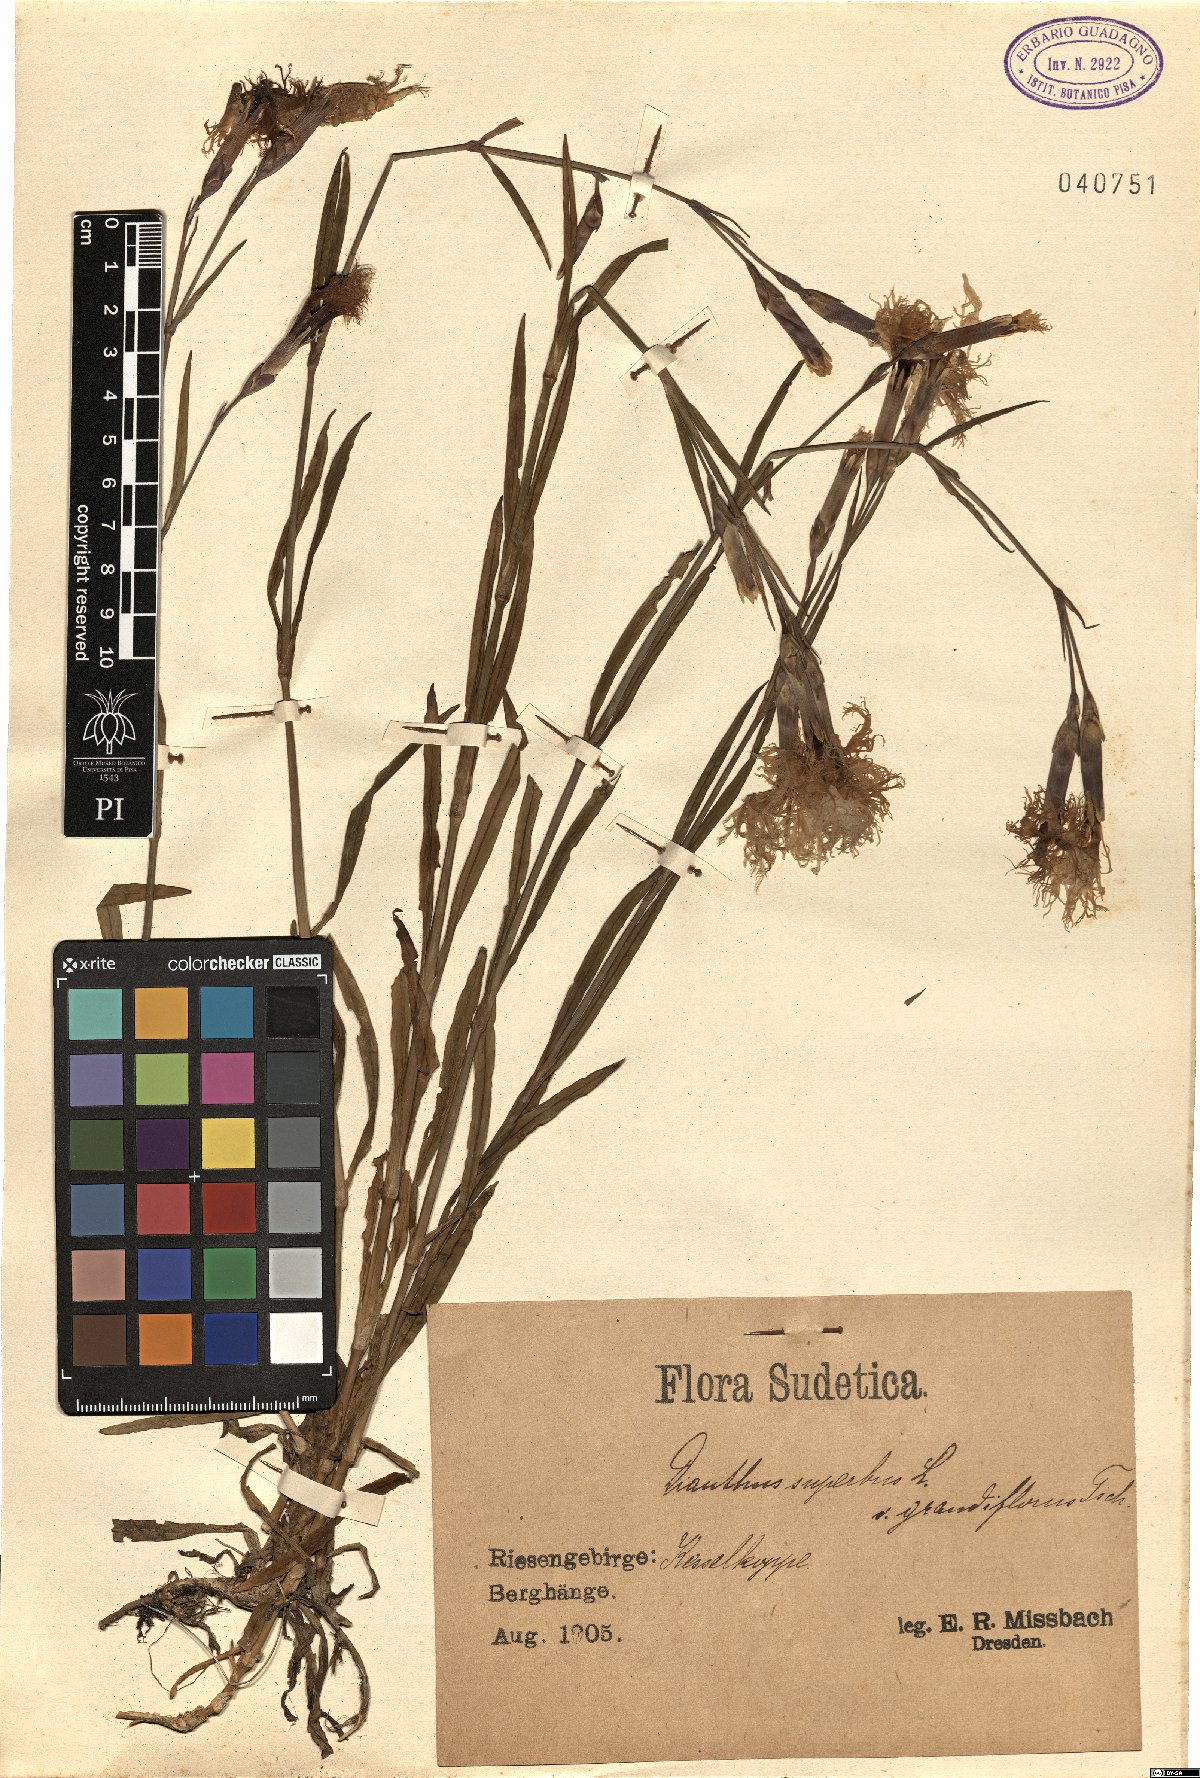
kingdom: Plantae
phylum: Tracheophyta
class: Magnoliopsida
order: Caryophyllales
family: Caryophyllaceae
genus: Dianthus
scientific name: Dianthus superbus
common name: Fringed pink
